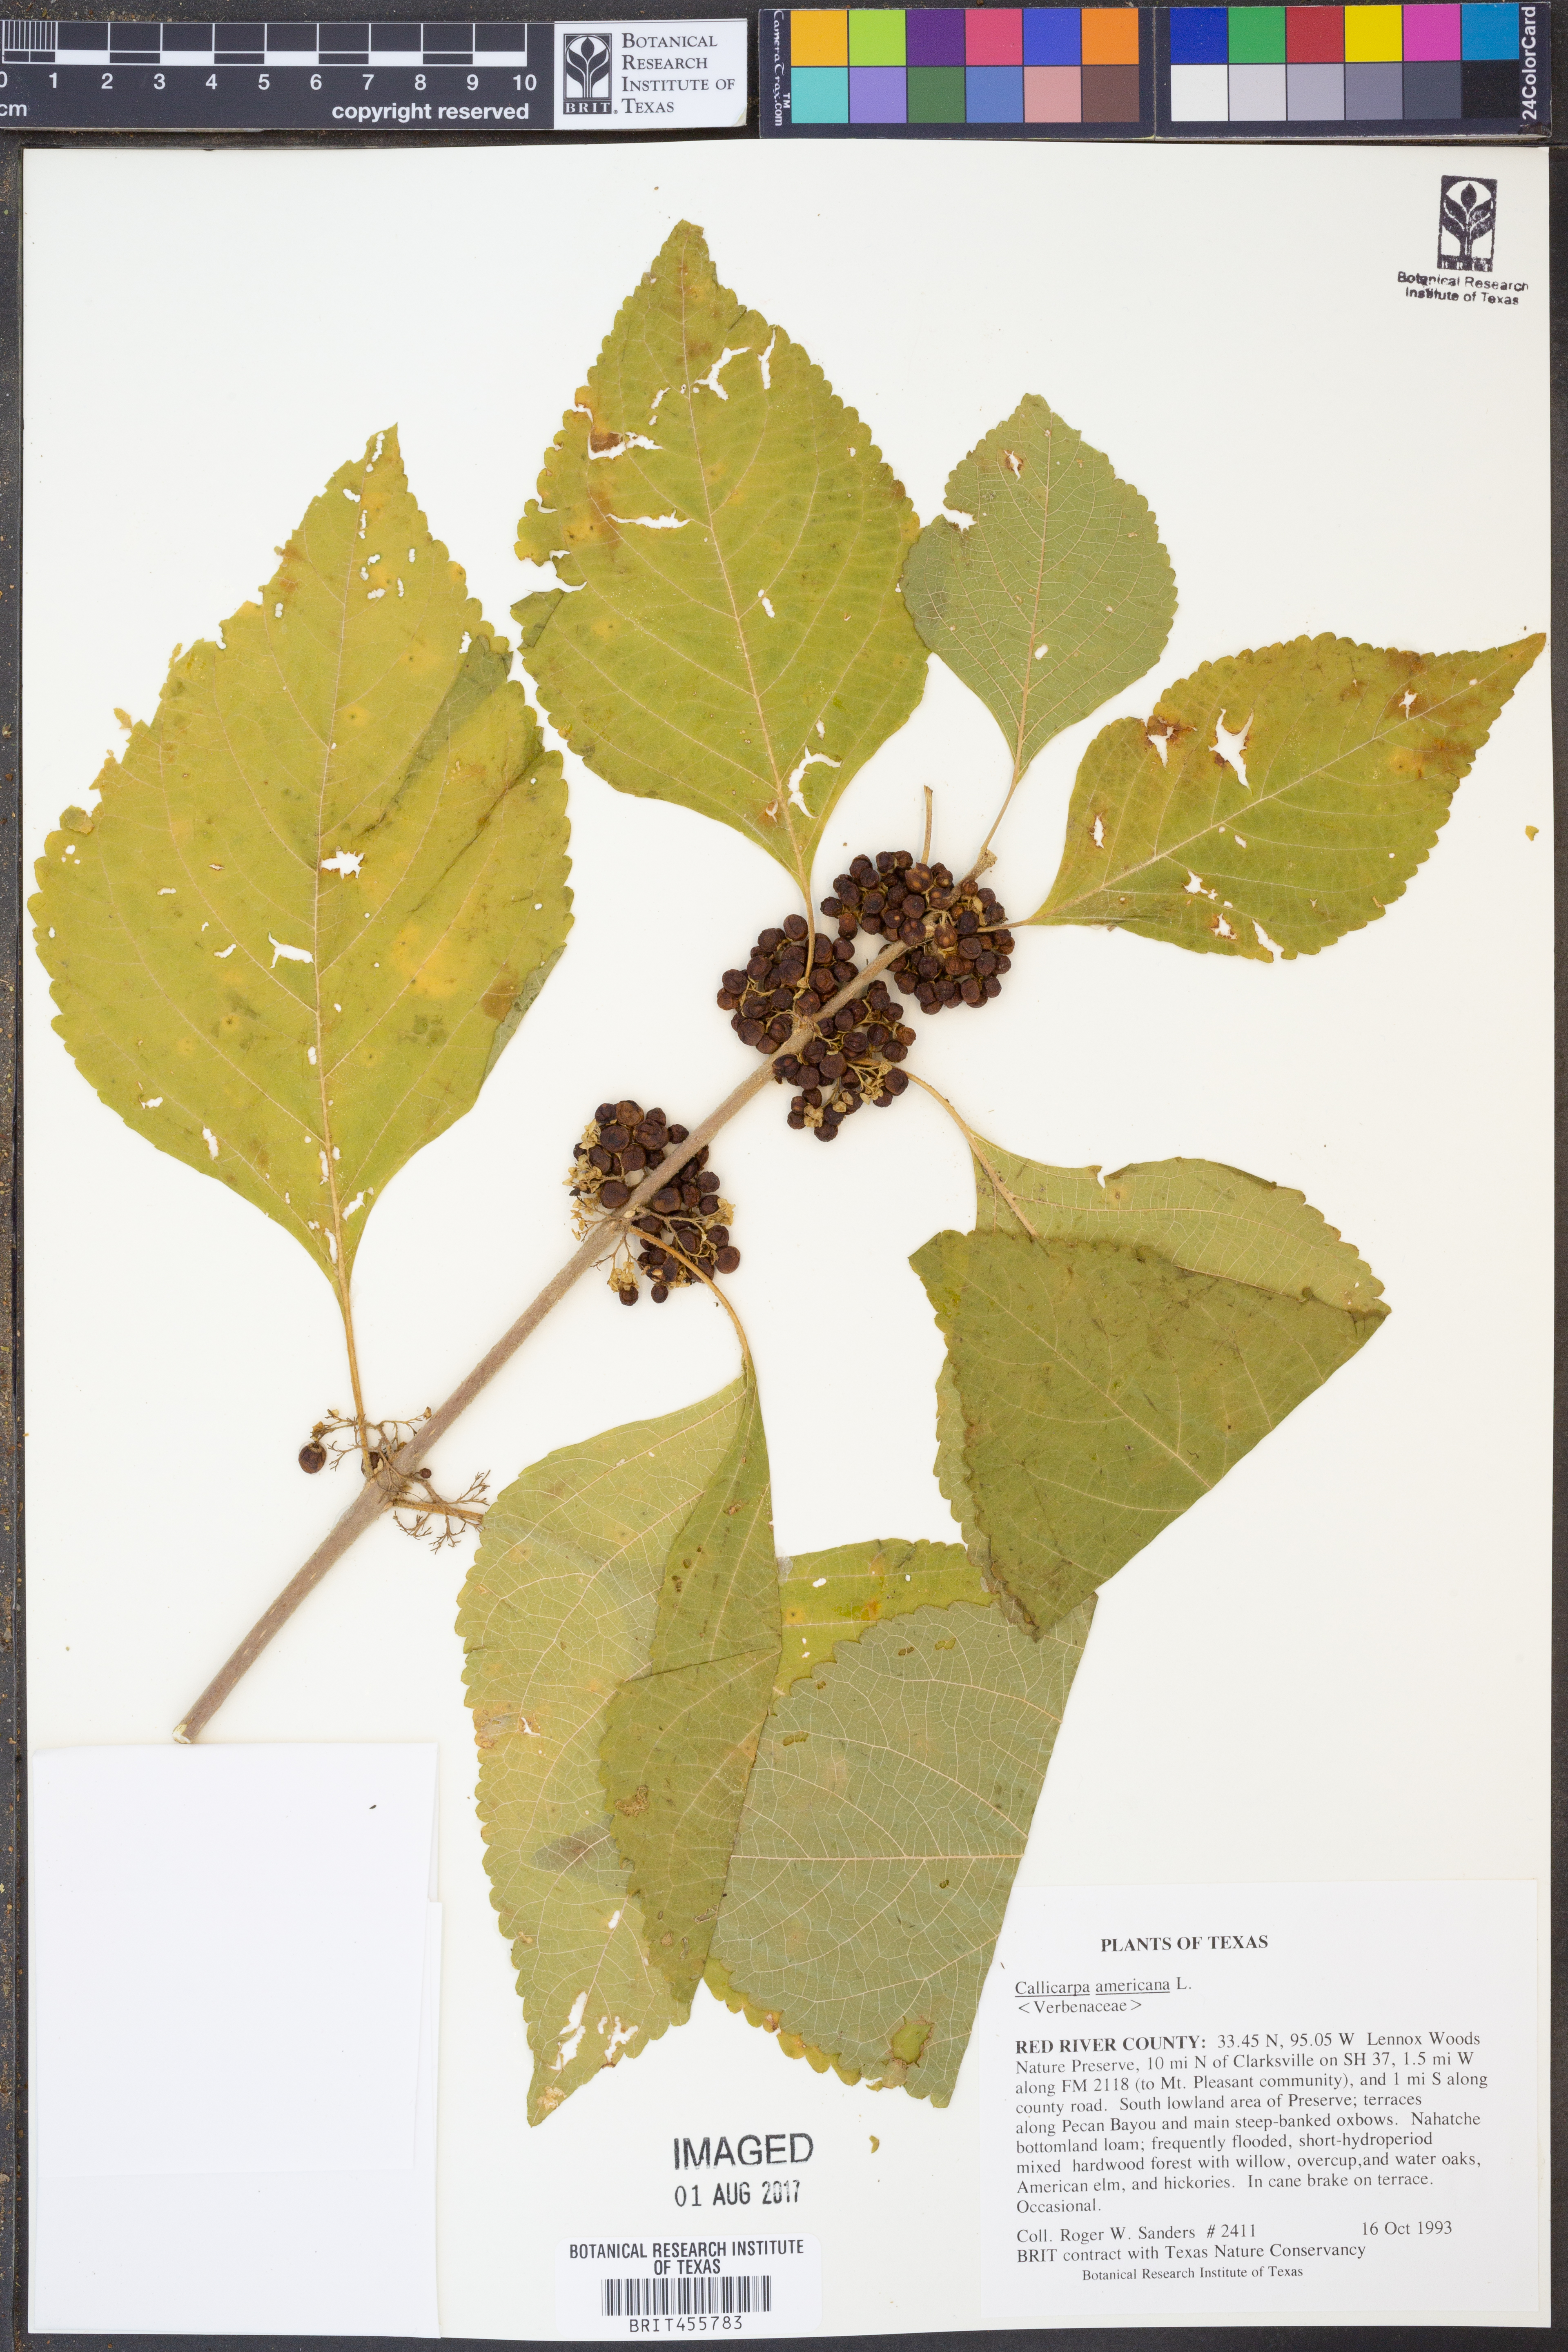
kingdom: Plantae
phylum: Tracheophyta
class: Magnoliopsida
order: Lamiales
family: Lamiaceae
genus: Callicarpa
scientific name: Callicarpa americana
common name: American beautyberry
